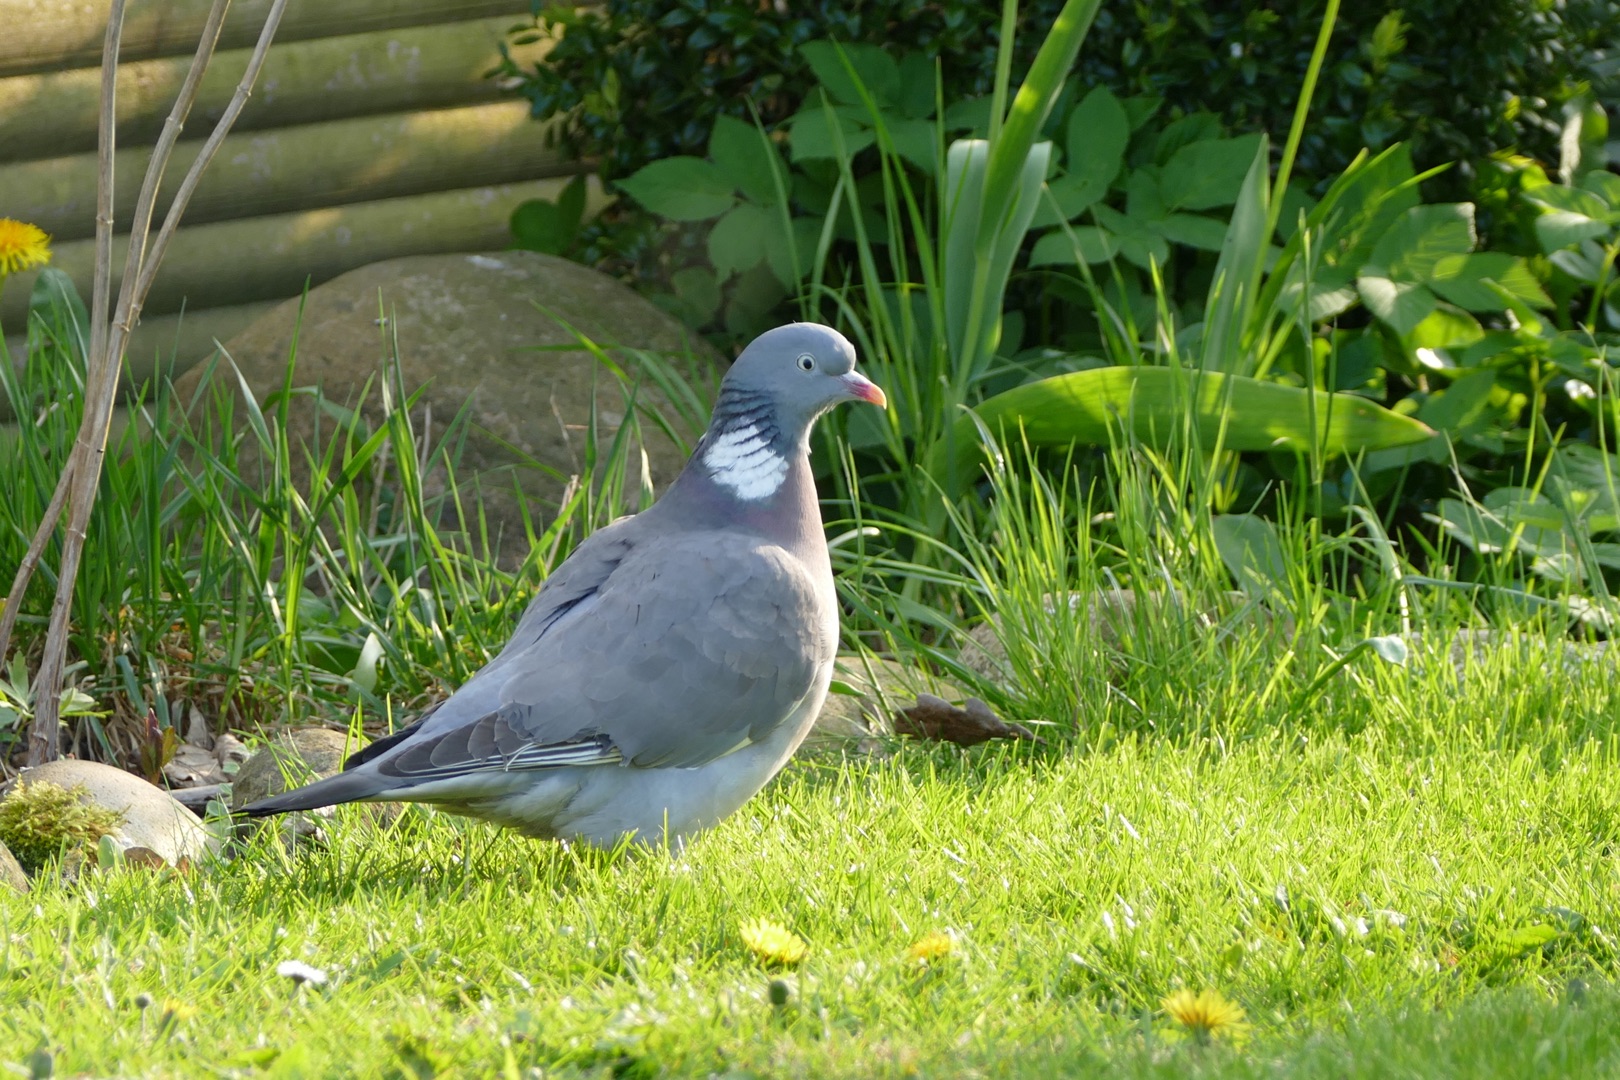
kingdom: Animalia
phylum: Chordata
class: Aves
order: Columbiformes
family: Columbidae
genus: Columba
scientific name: Columba palumbus
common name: Ringdue
